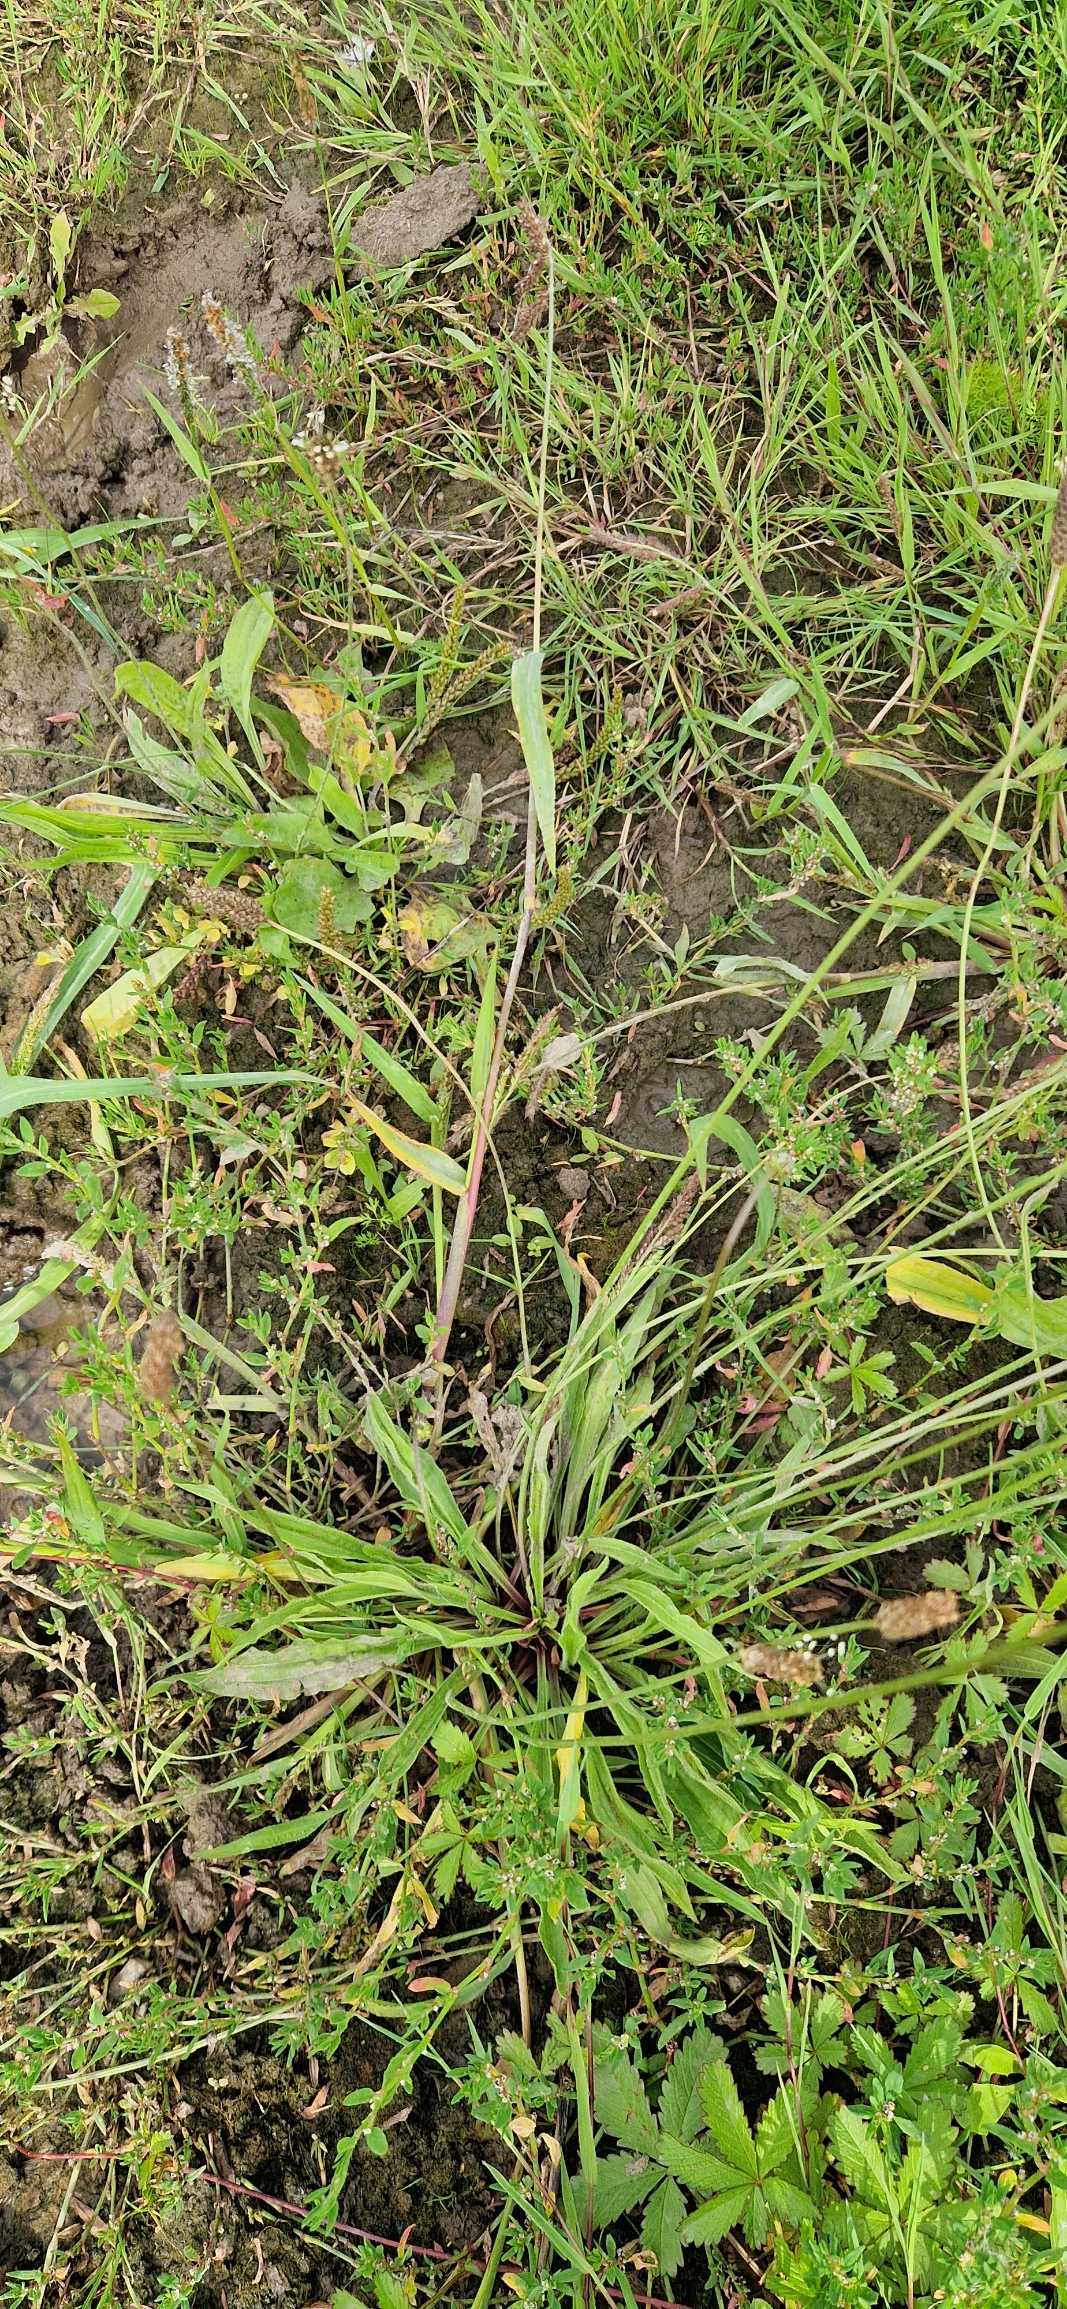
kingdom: Plantae
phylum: Tracheophyta
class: Liliopsida
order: Poales
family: Poaceae
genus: Echinochloa
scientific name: Echinochloa crus-galli
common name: Almindelig hanespore
